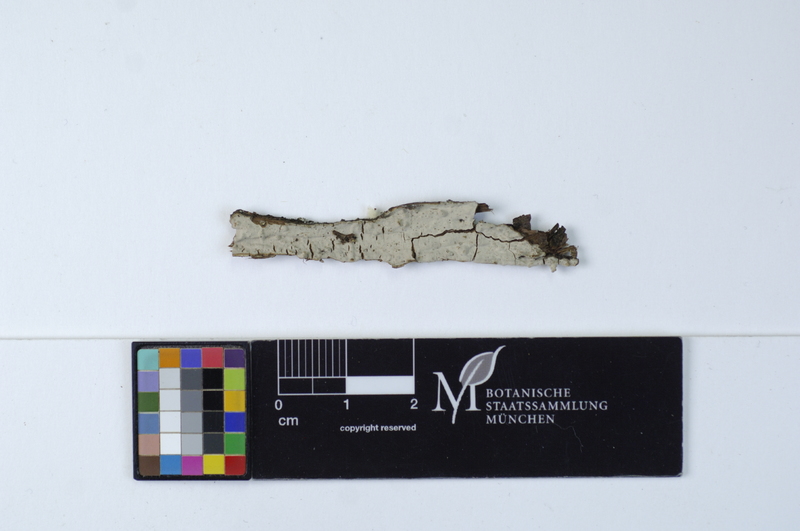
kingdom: Fungi
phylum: Basidiomycota
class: Agaricomycetes
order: Russulales
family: Echinodontiaceae
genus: Amylostereum
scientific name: Amylostereum laevigatum
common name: Yew duster
